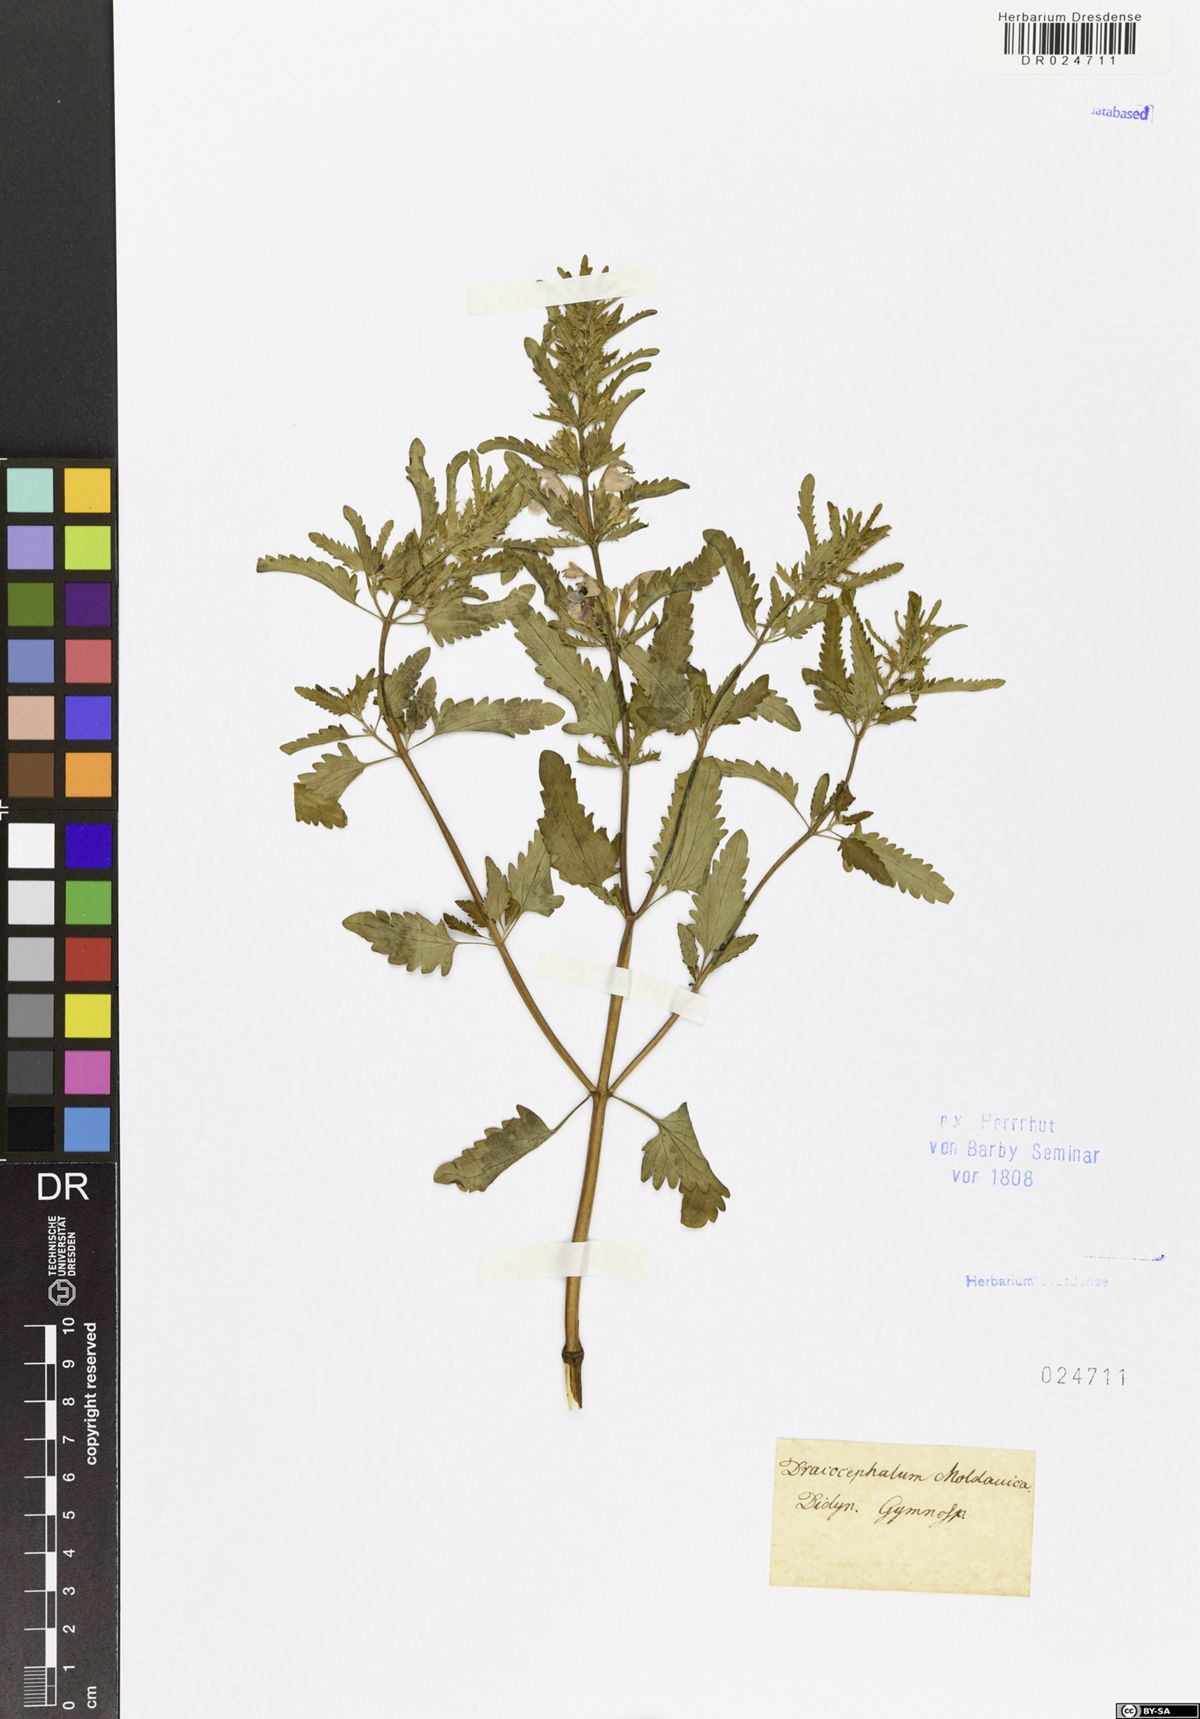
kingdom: Plantae
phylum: Tracheophyta
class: Magnoliopsida
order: Lamiales
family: Lamiaceae
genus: Dracocephalum
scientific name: Dracocephalum moldavica
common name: Moldavian dragonhead
